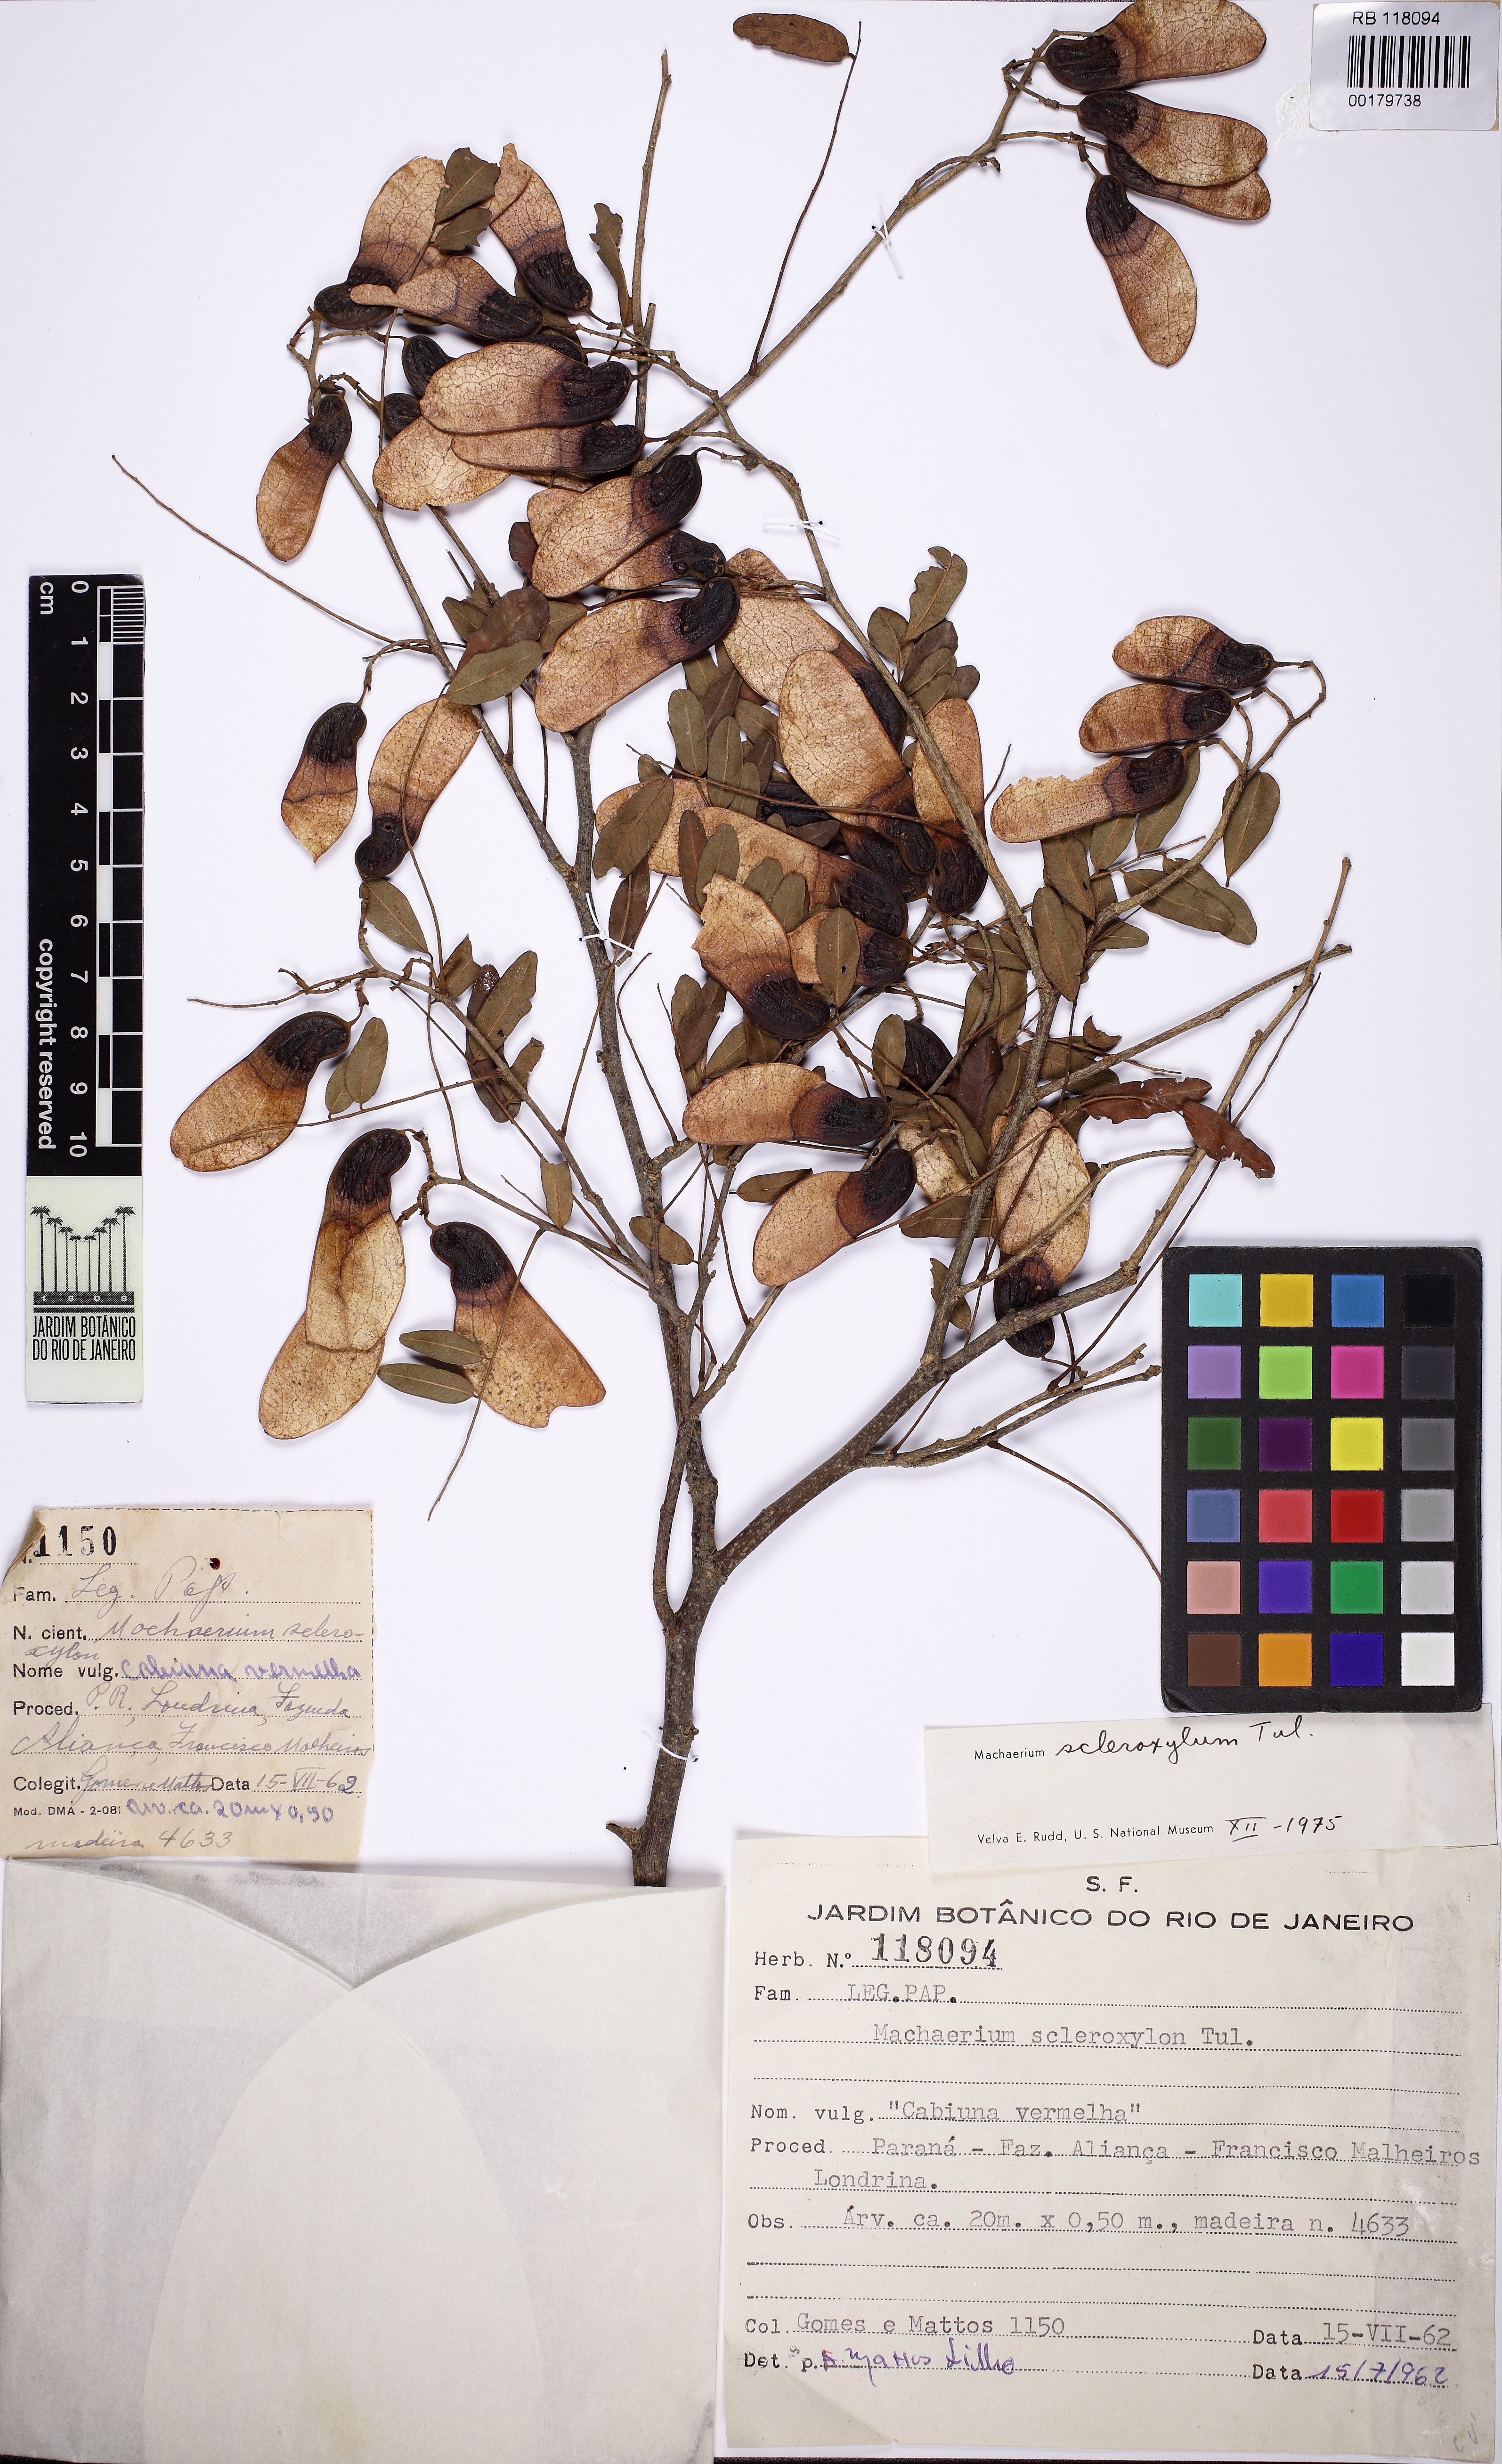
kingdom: Plantae
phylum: Tracheophyta
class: Magnoliopsida
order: Fabales
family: Fabaceae
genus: Machaerium
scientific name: Machaerium scleroxylon
